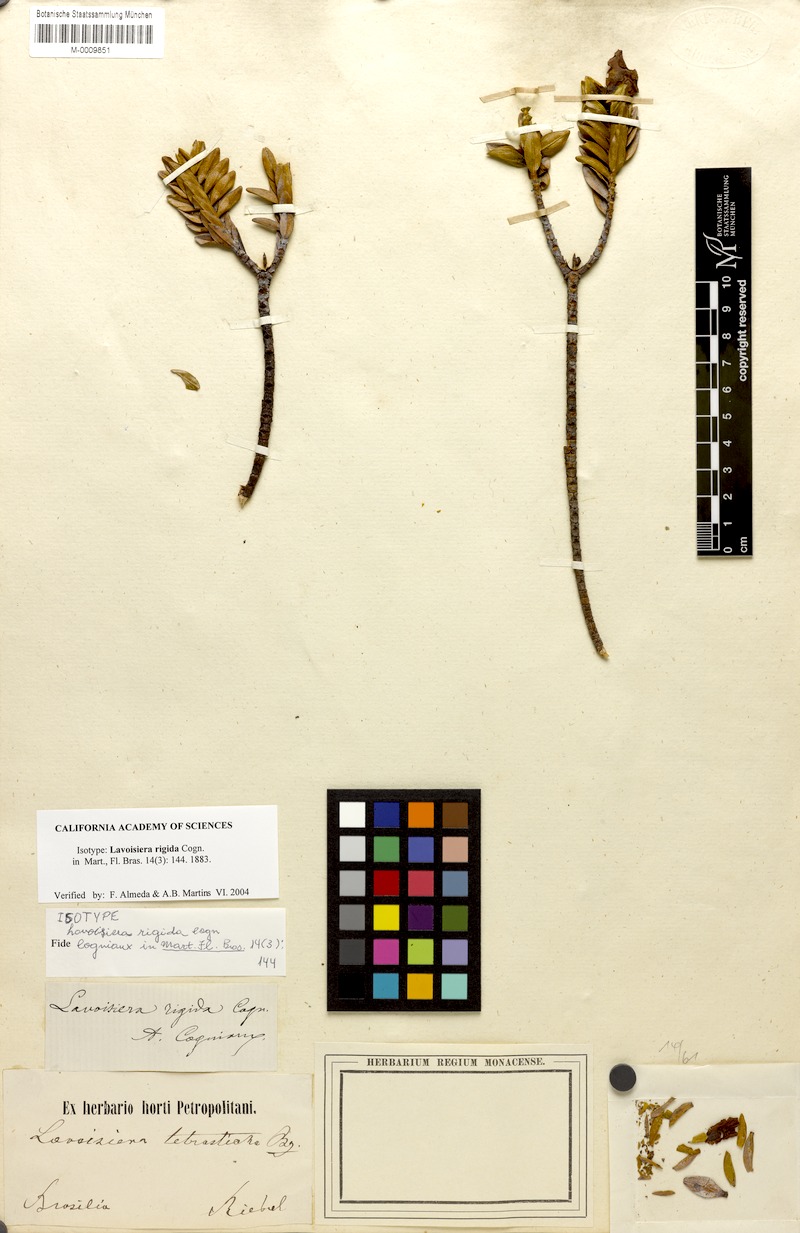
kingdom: Plantae
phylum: Tracheophyta
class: Magnoliopsida
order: Myrtales
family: Melastomataceae
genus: Microlicia
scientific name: Microlicia rigida
